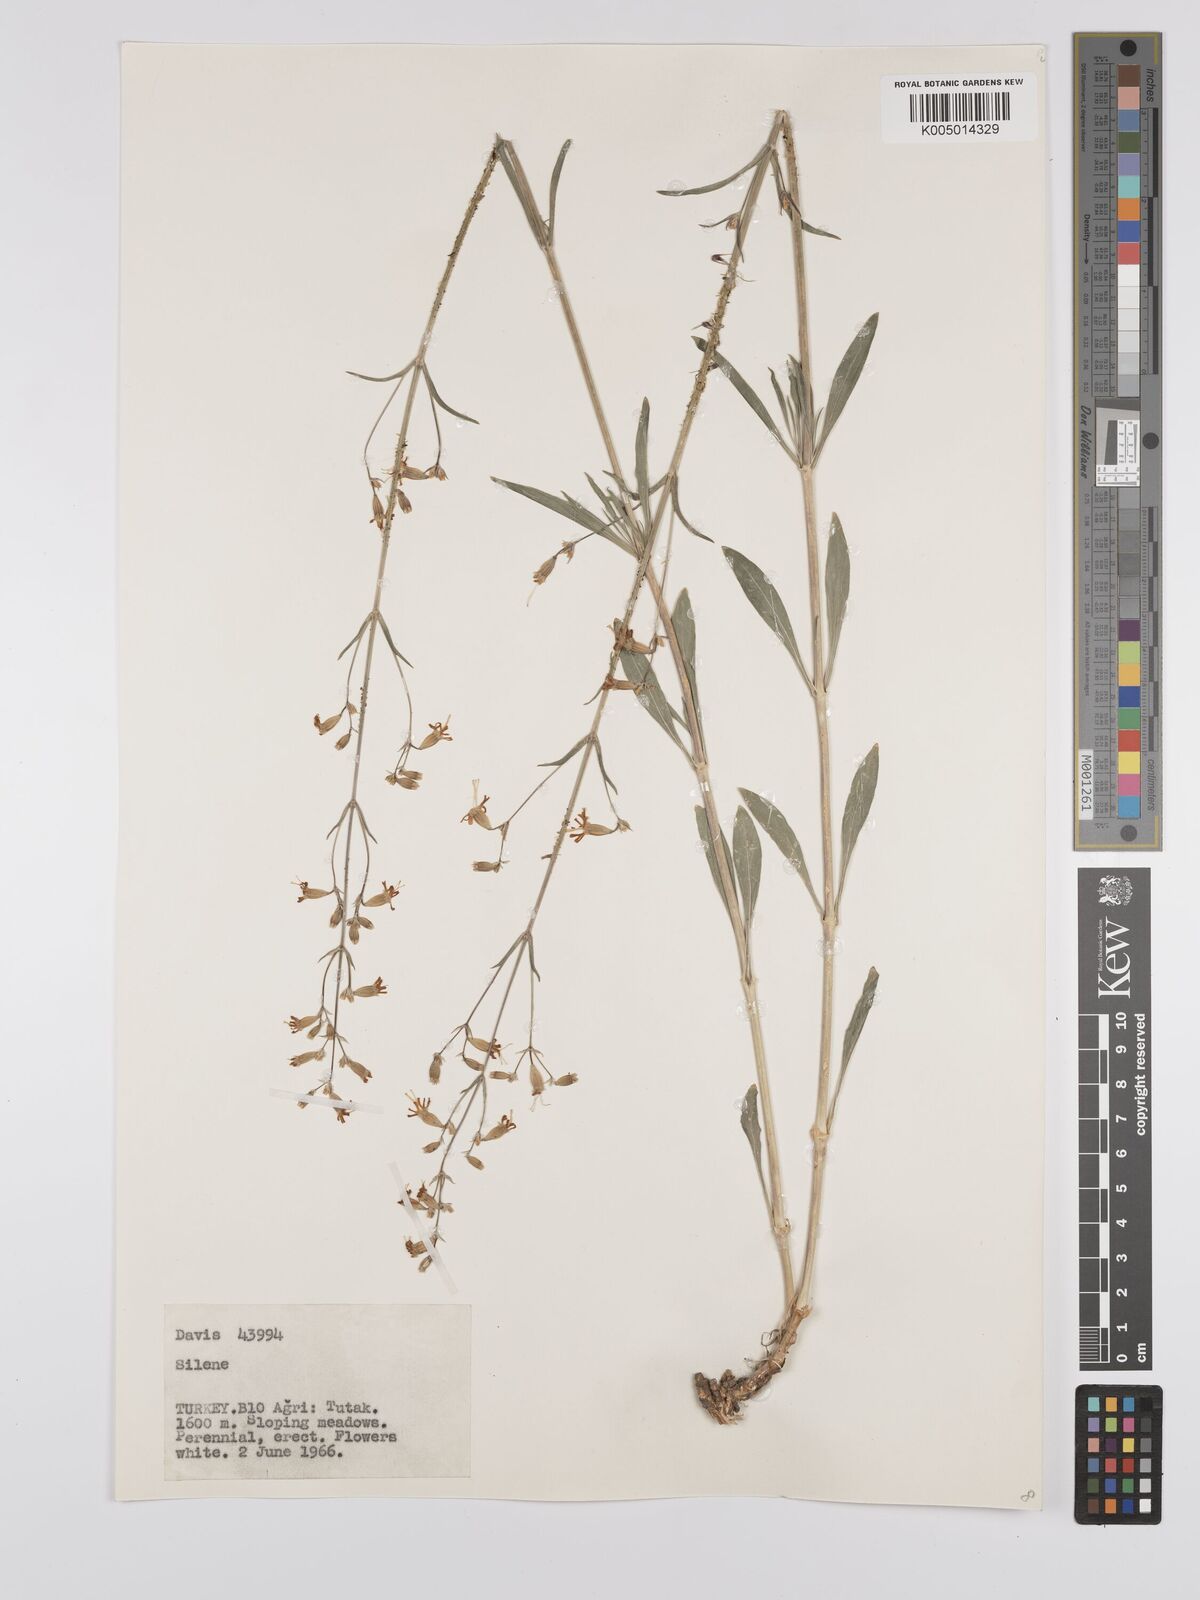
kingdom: Plantae
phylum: Tracheophyta
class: Magnoliopsida
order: Caryophyllales
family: Caryophyllaceae
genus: Silene
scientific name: Silene
